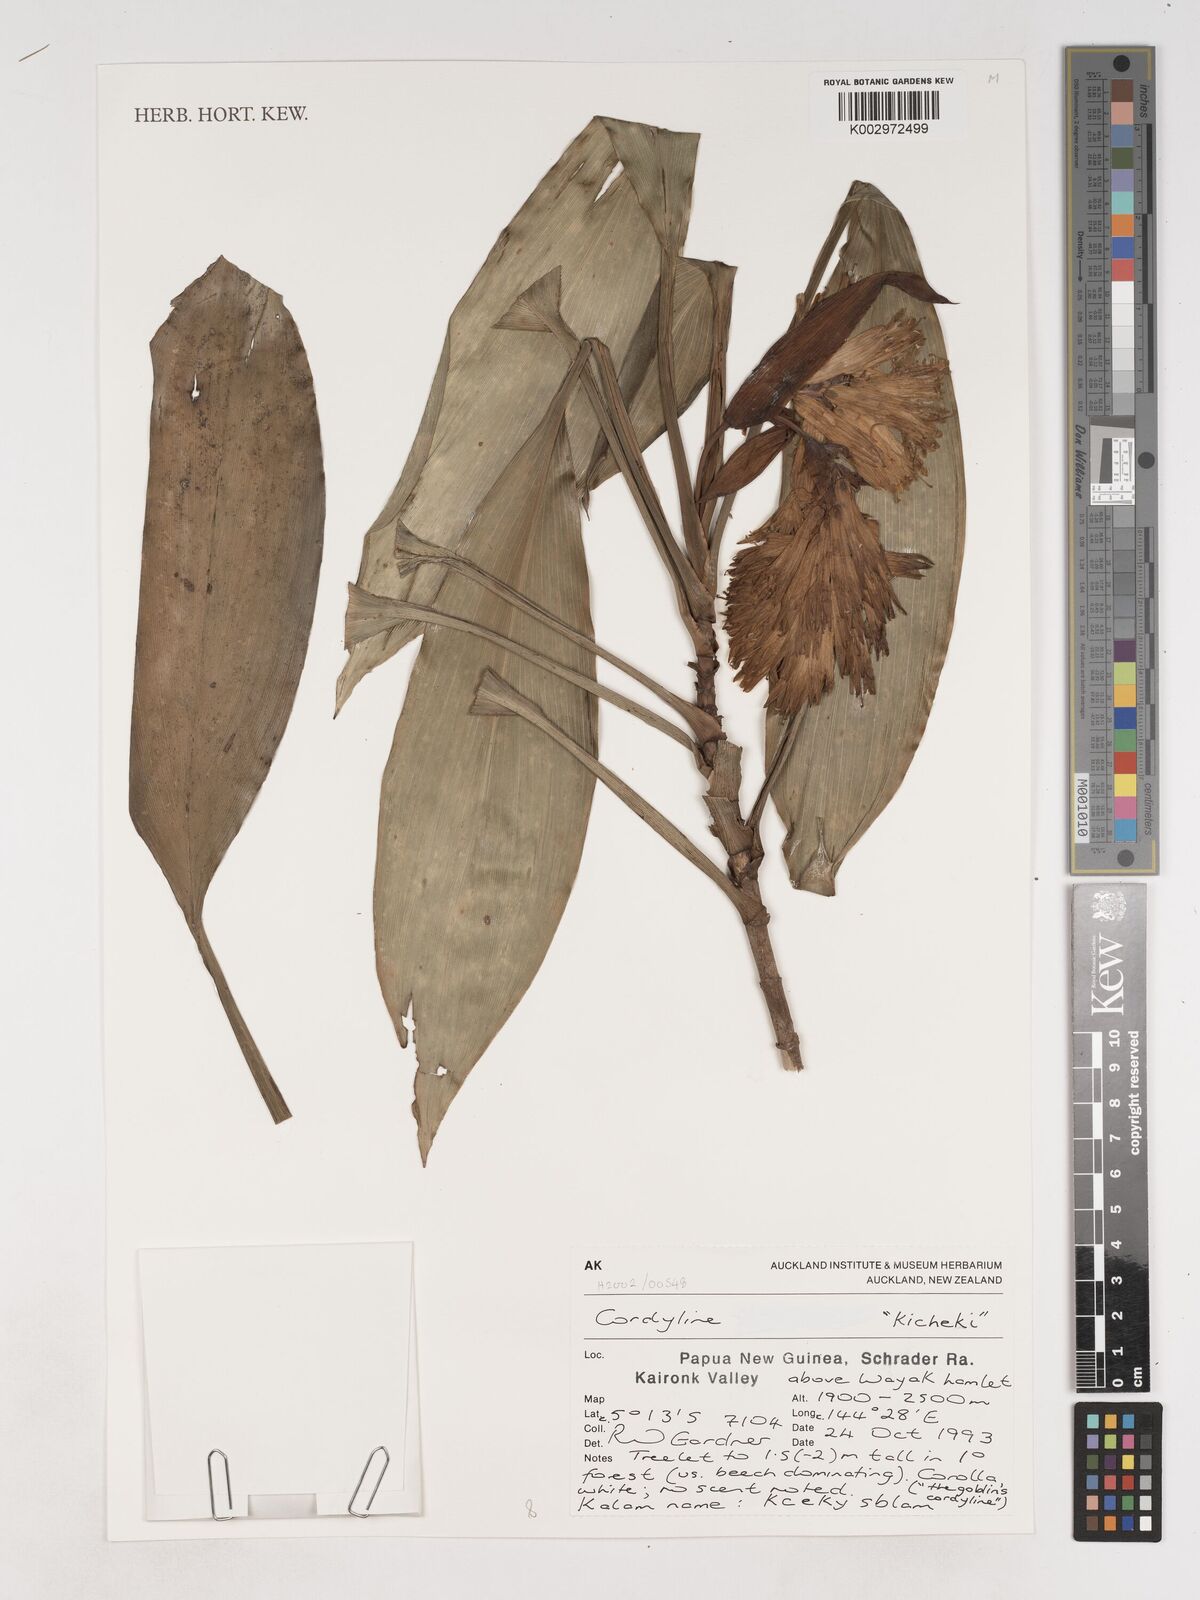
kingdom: Plantae
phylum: Tracheophyta
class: Liliopsida
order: Asparagales
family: Asparagaceae
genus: Cordyline
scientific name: Cordyline
